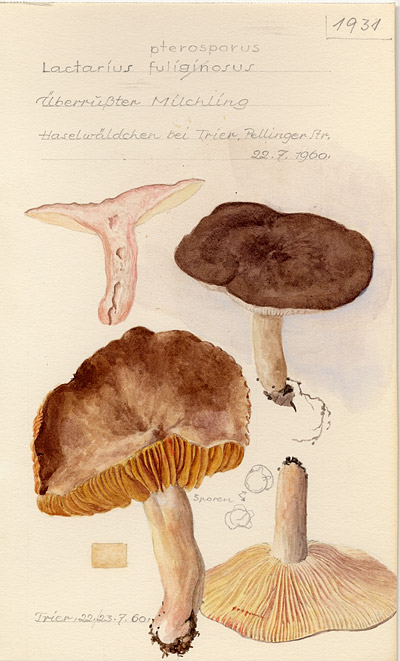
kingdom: Fungi
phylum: Basidiomycota
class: Agaricomycetes
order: Russulales
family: Russulaceae
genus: Lactarius
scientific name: Lactarius pterosporus
